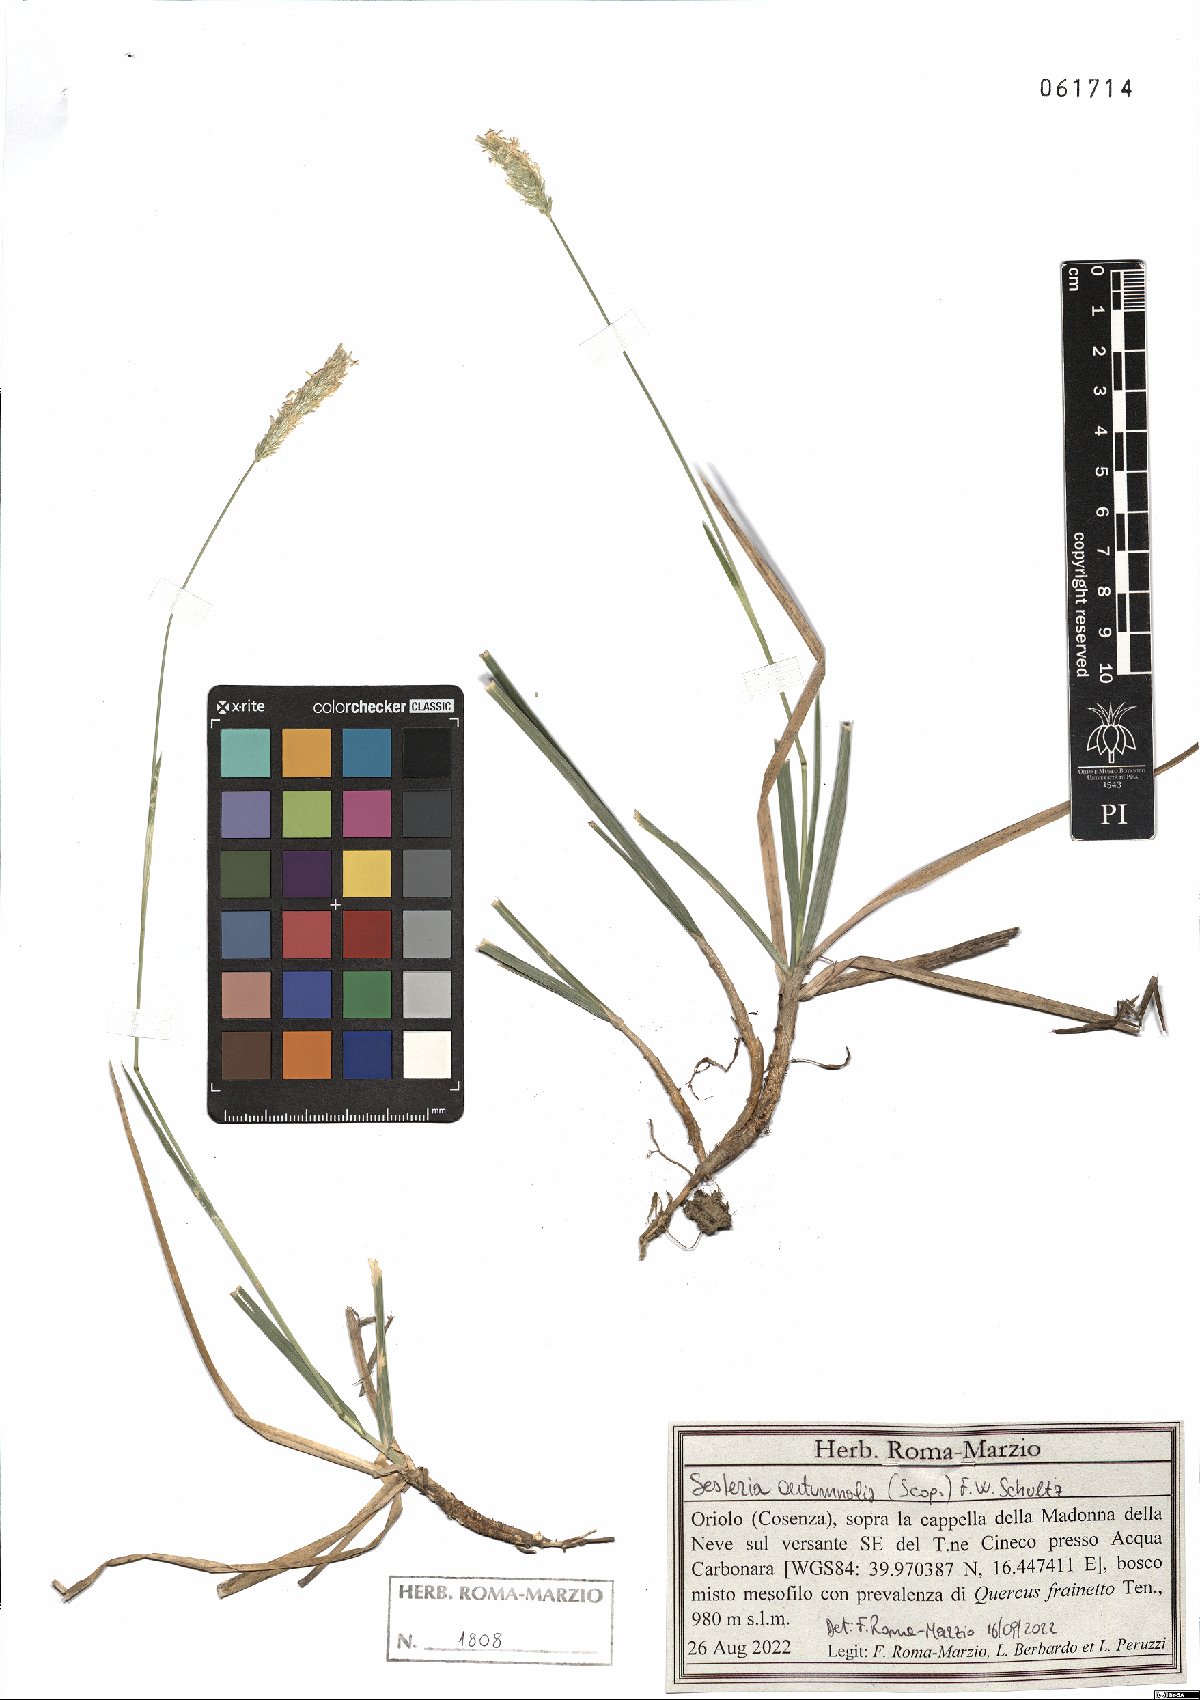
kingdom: Plantae
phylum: Tracheophyta
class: Liliopsida
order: Poales
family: Poaceae
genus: Sesleria
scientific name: Sesleria autumnalis
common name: Autumn moor grass
